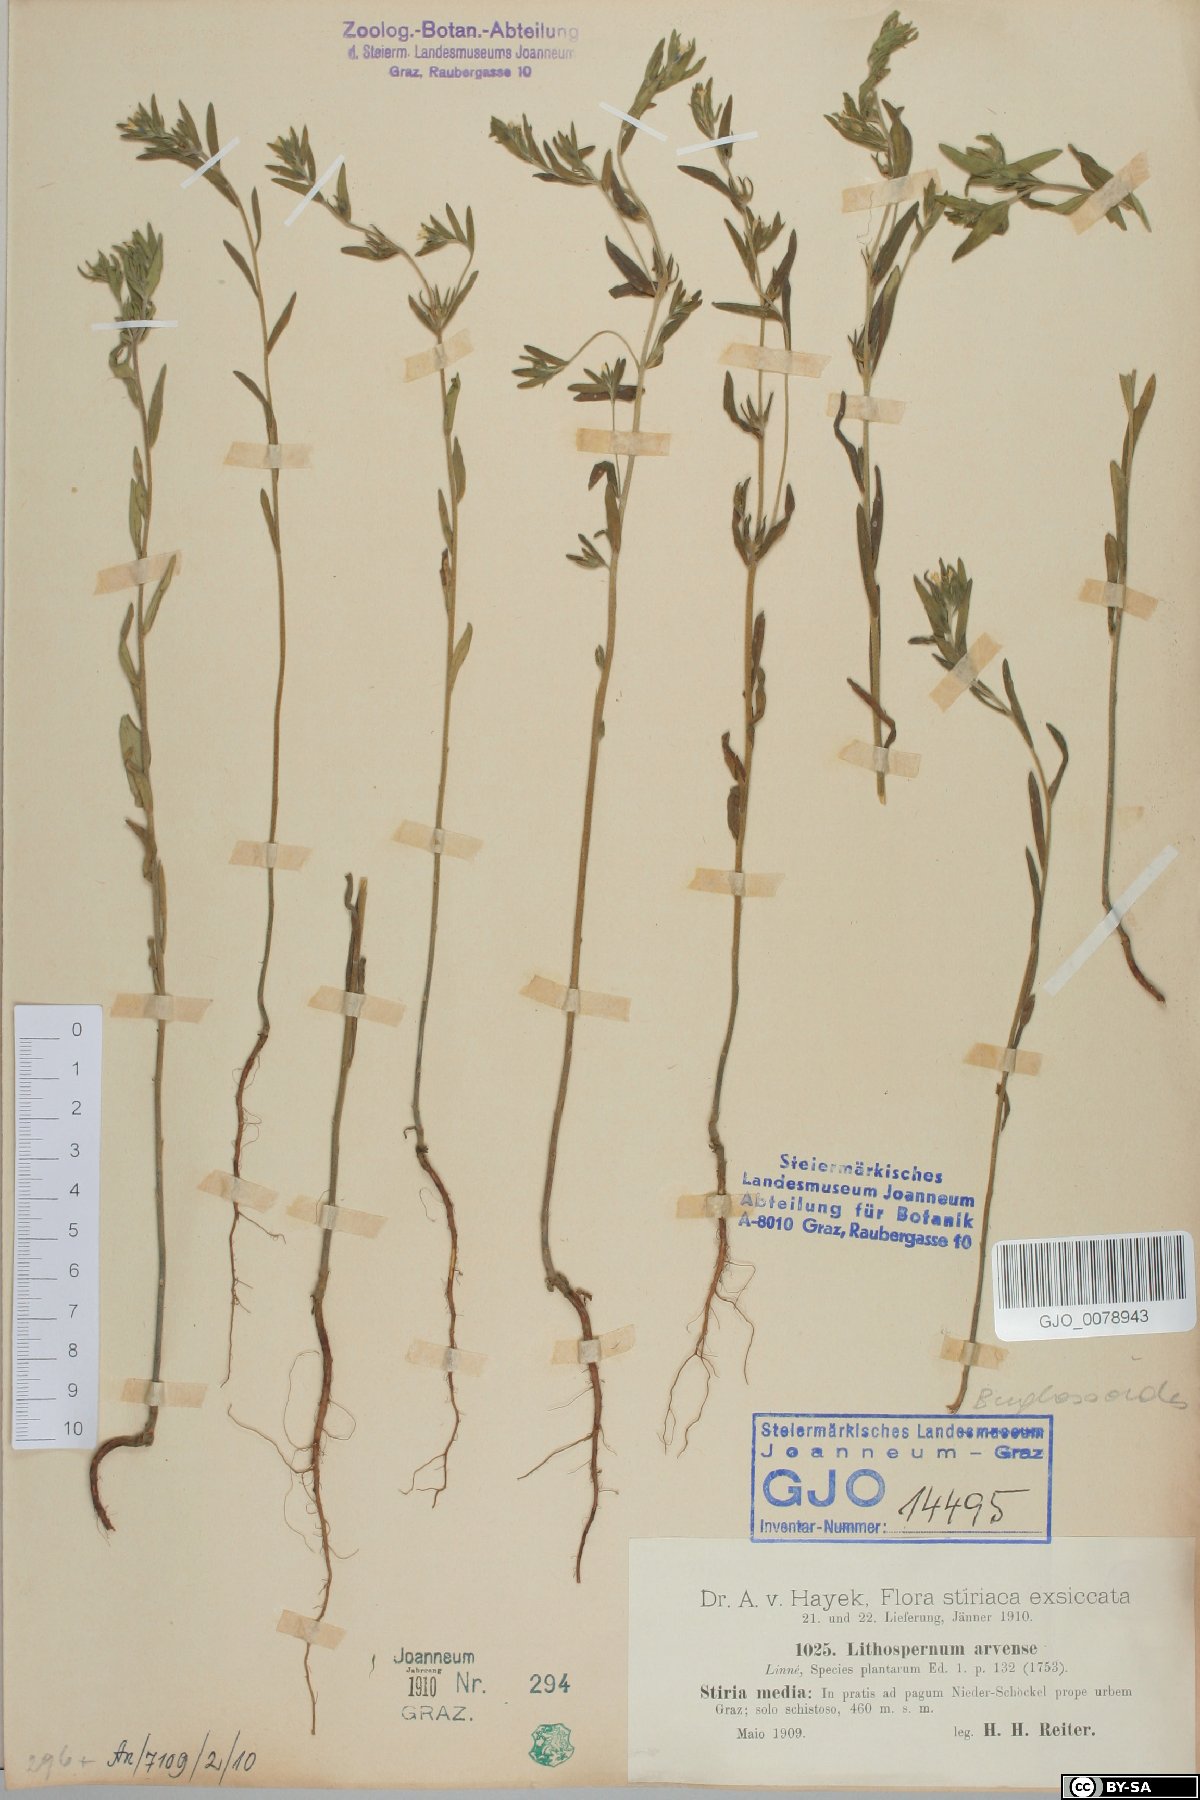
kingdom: Plantae
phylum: Tracheophyta
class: Magnoliopsida
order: Boraginales
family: Boraginaceae
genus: Buglossoides
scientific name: Buglossoides arvensis
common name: Corn gromwell
